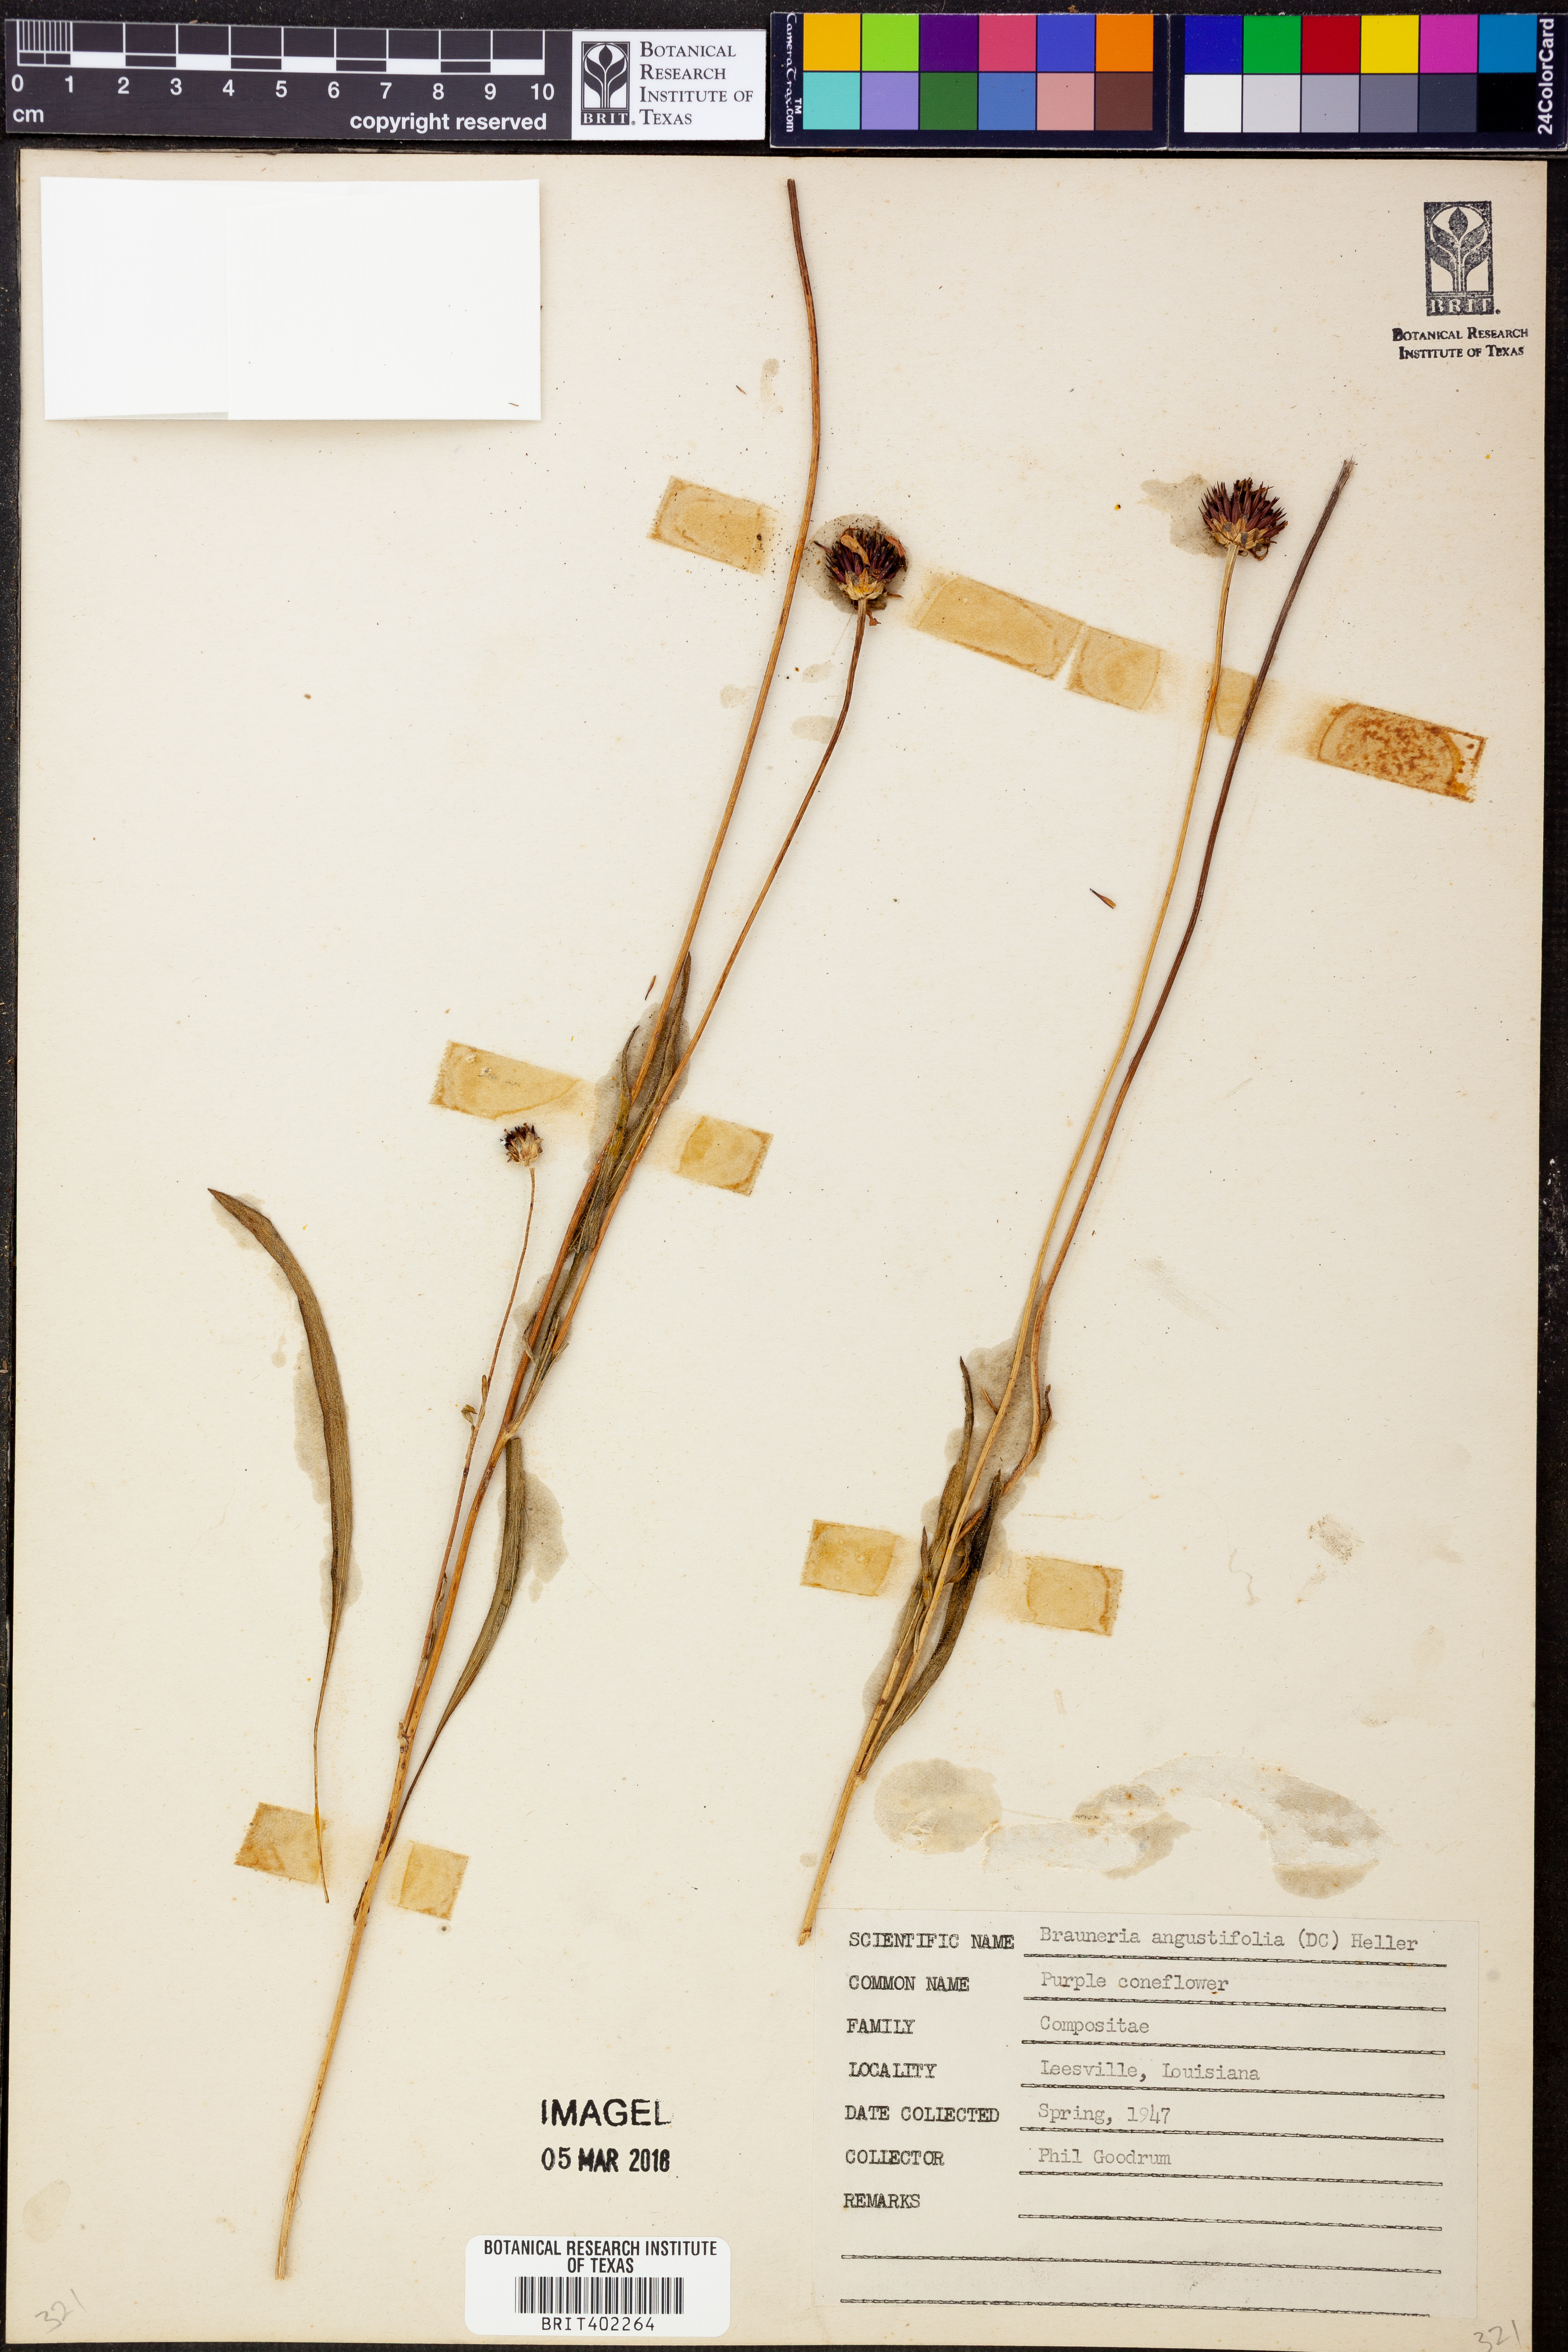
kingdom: Plantae
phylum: Tracheophyta
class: Magnoliopsida
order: Asterales
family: Asteraceae
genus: Echinacea
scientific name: Echinacea angustifolia
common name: Black-sampson echinacea
